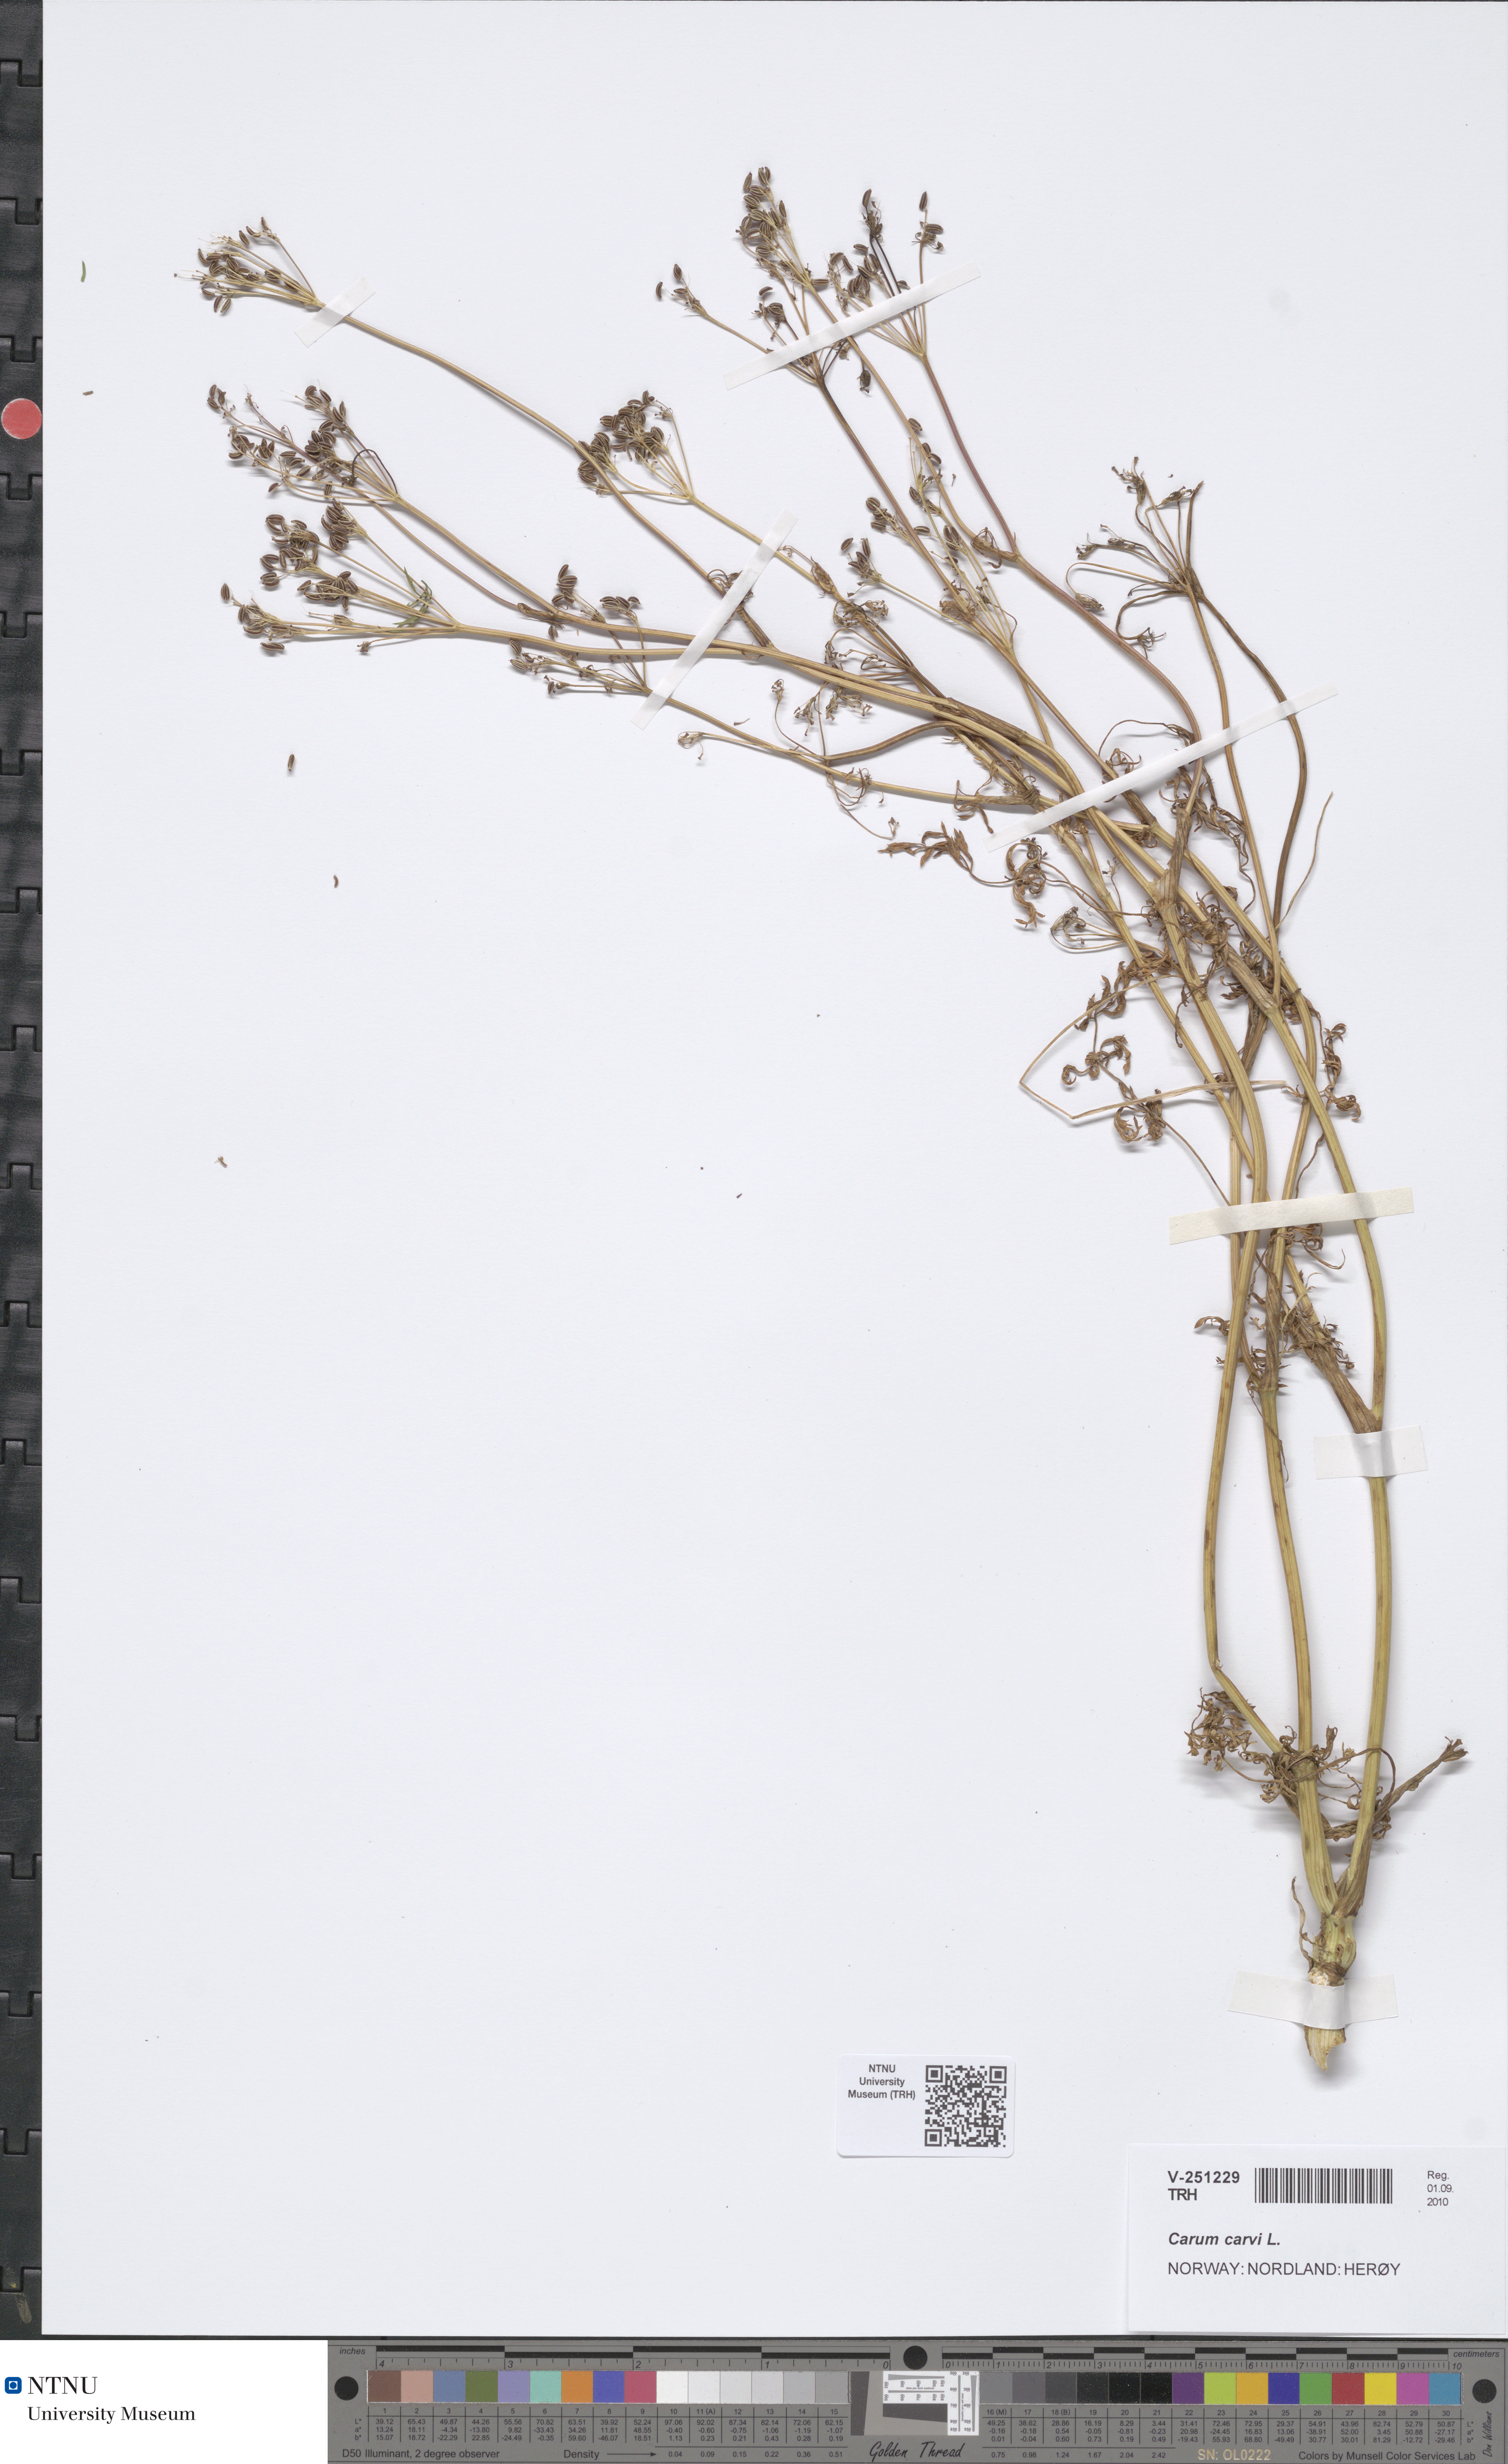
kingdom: Plantae
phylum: Tracheophyta
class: Magnoliopsida
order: Apiales
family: Apiaceae
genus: Carum
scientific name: Carum carvi
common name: Caraway
